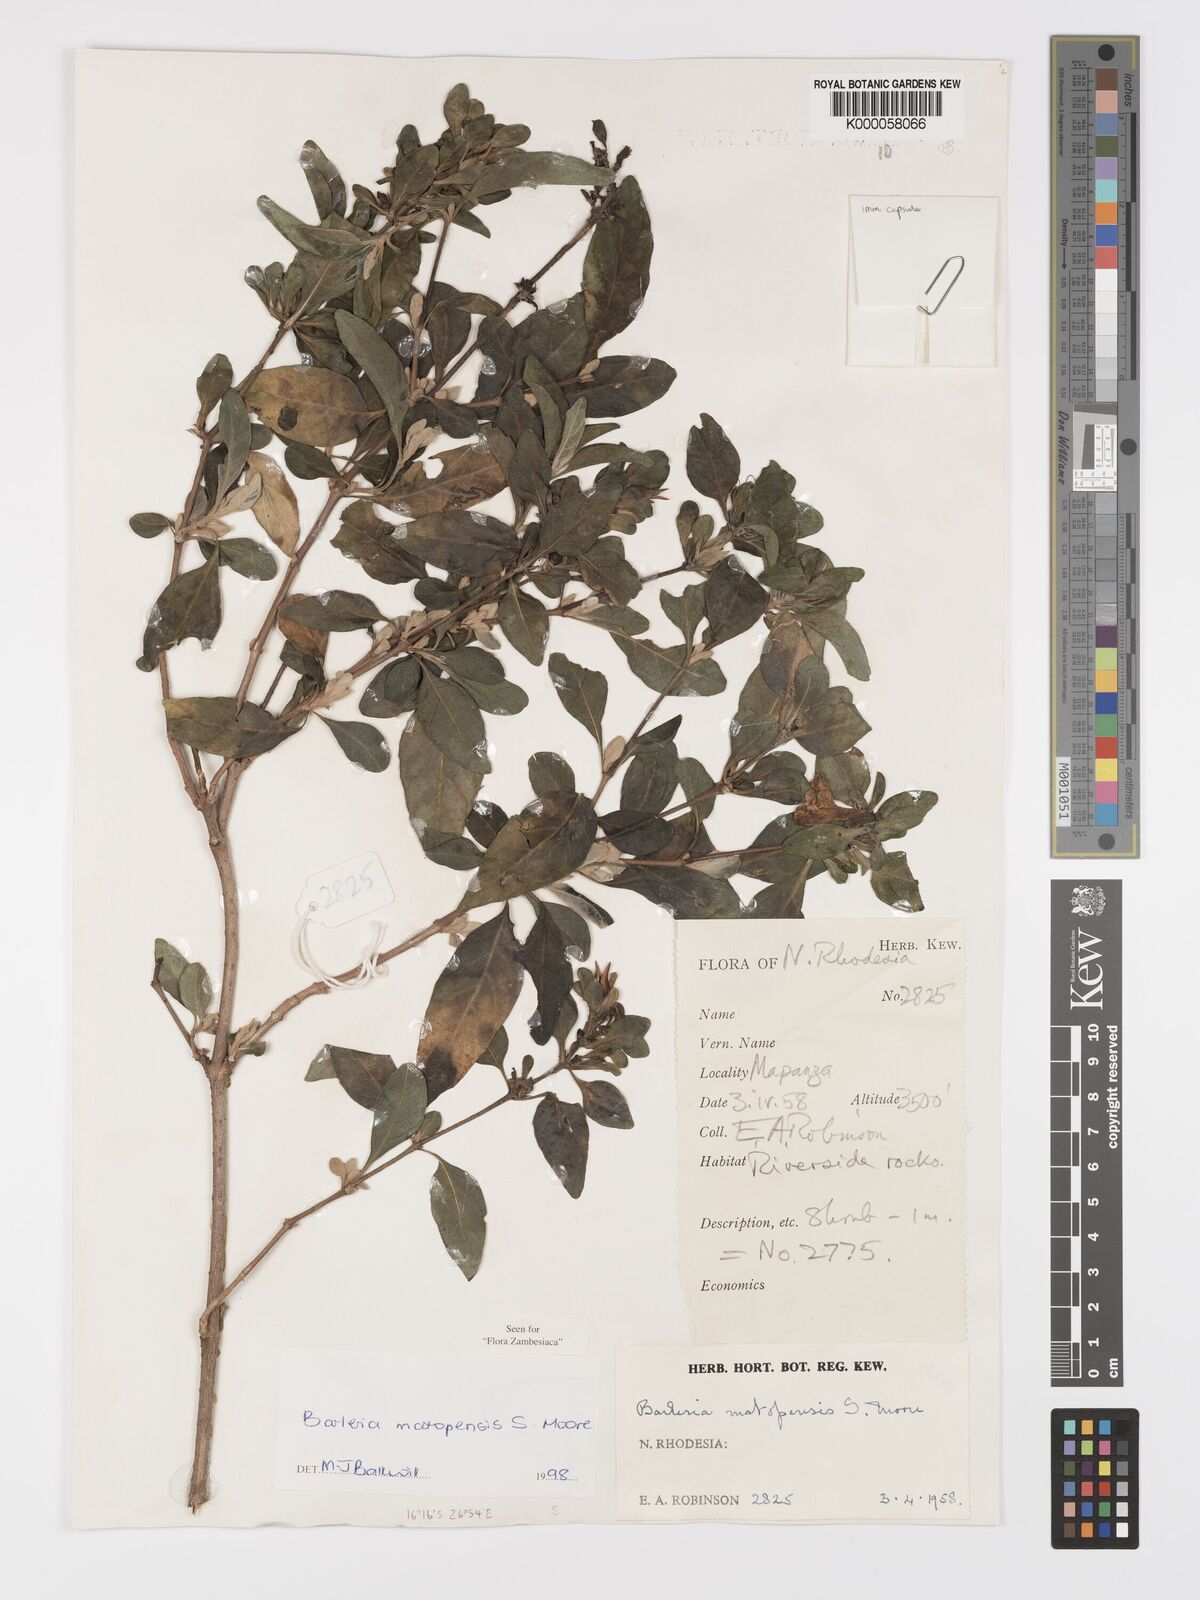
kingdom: Plantae
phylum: Tracheophyta
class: Magnoliopsida
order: Lamiales
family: Acanthaceae
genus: Barleria
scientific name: Barleria matopensis
